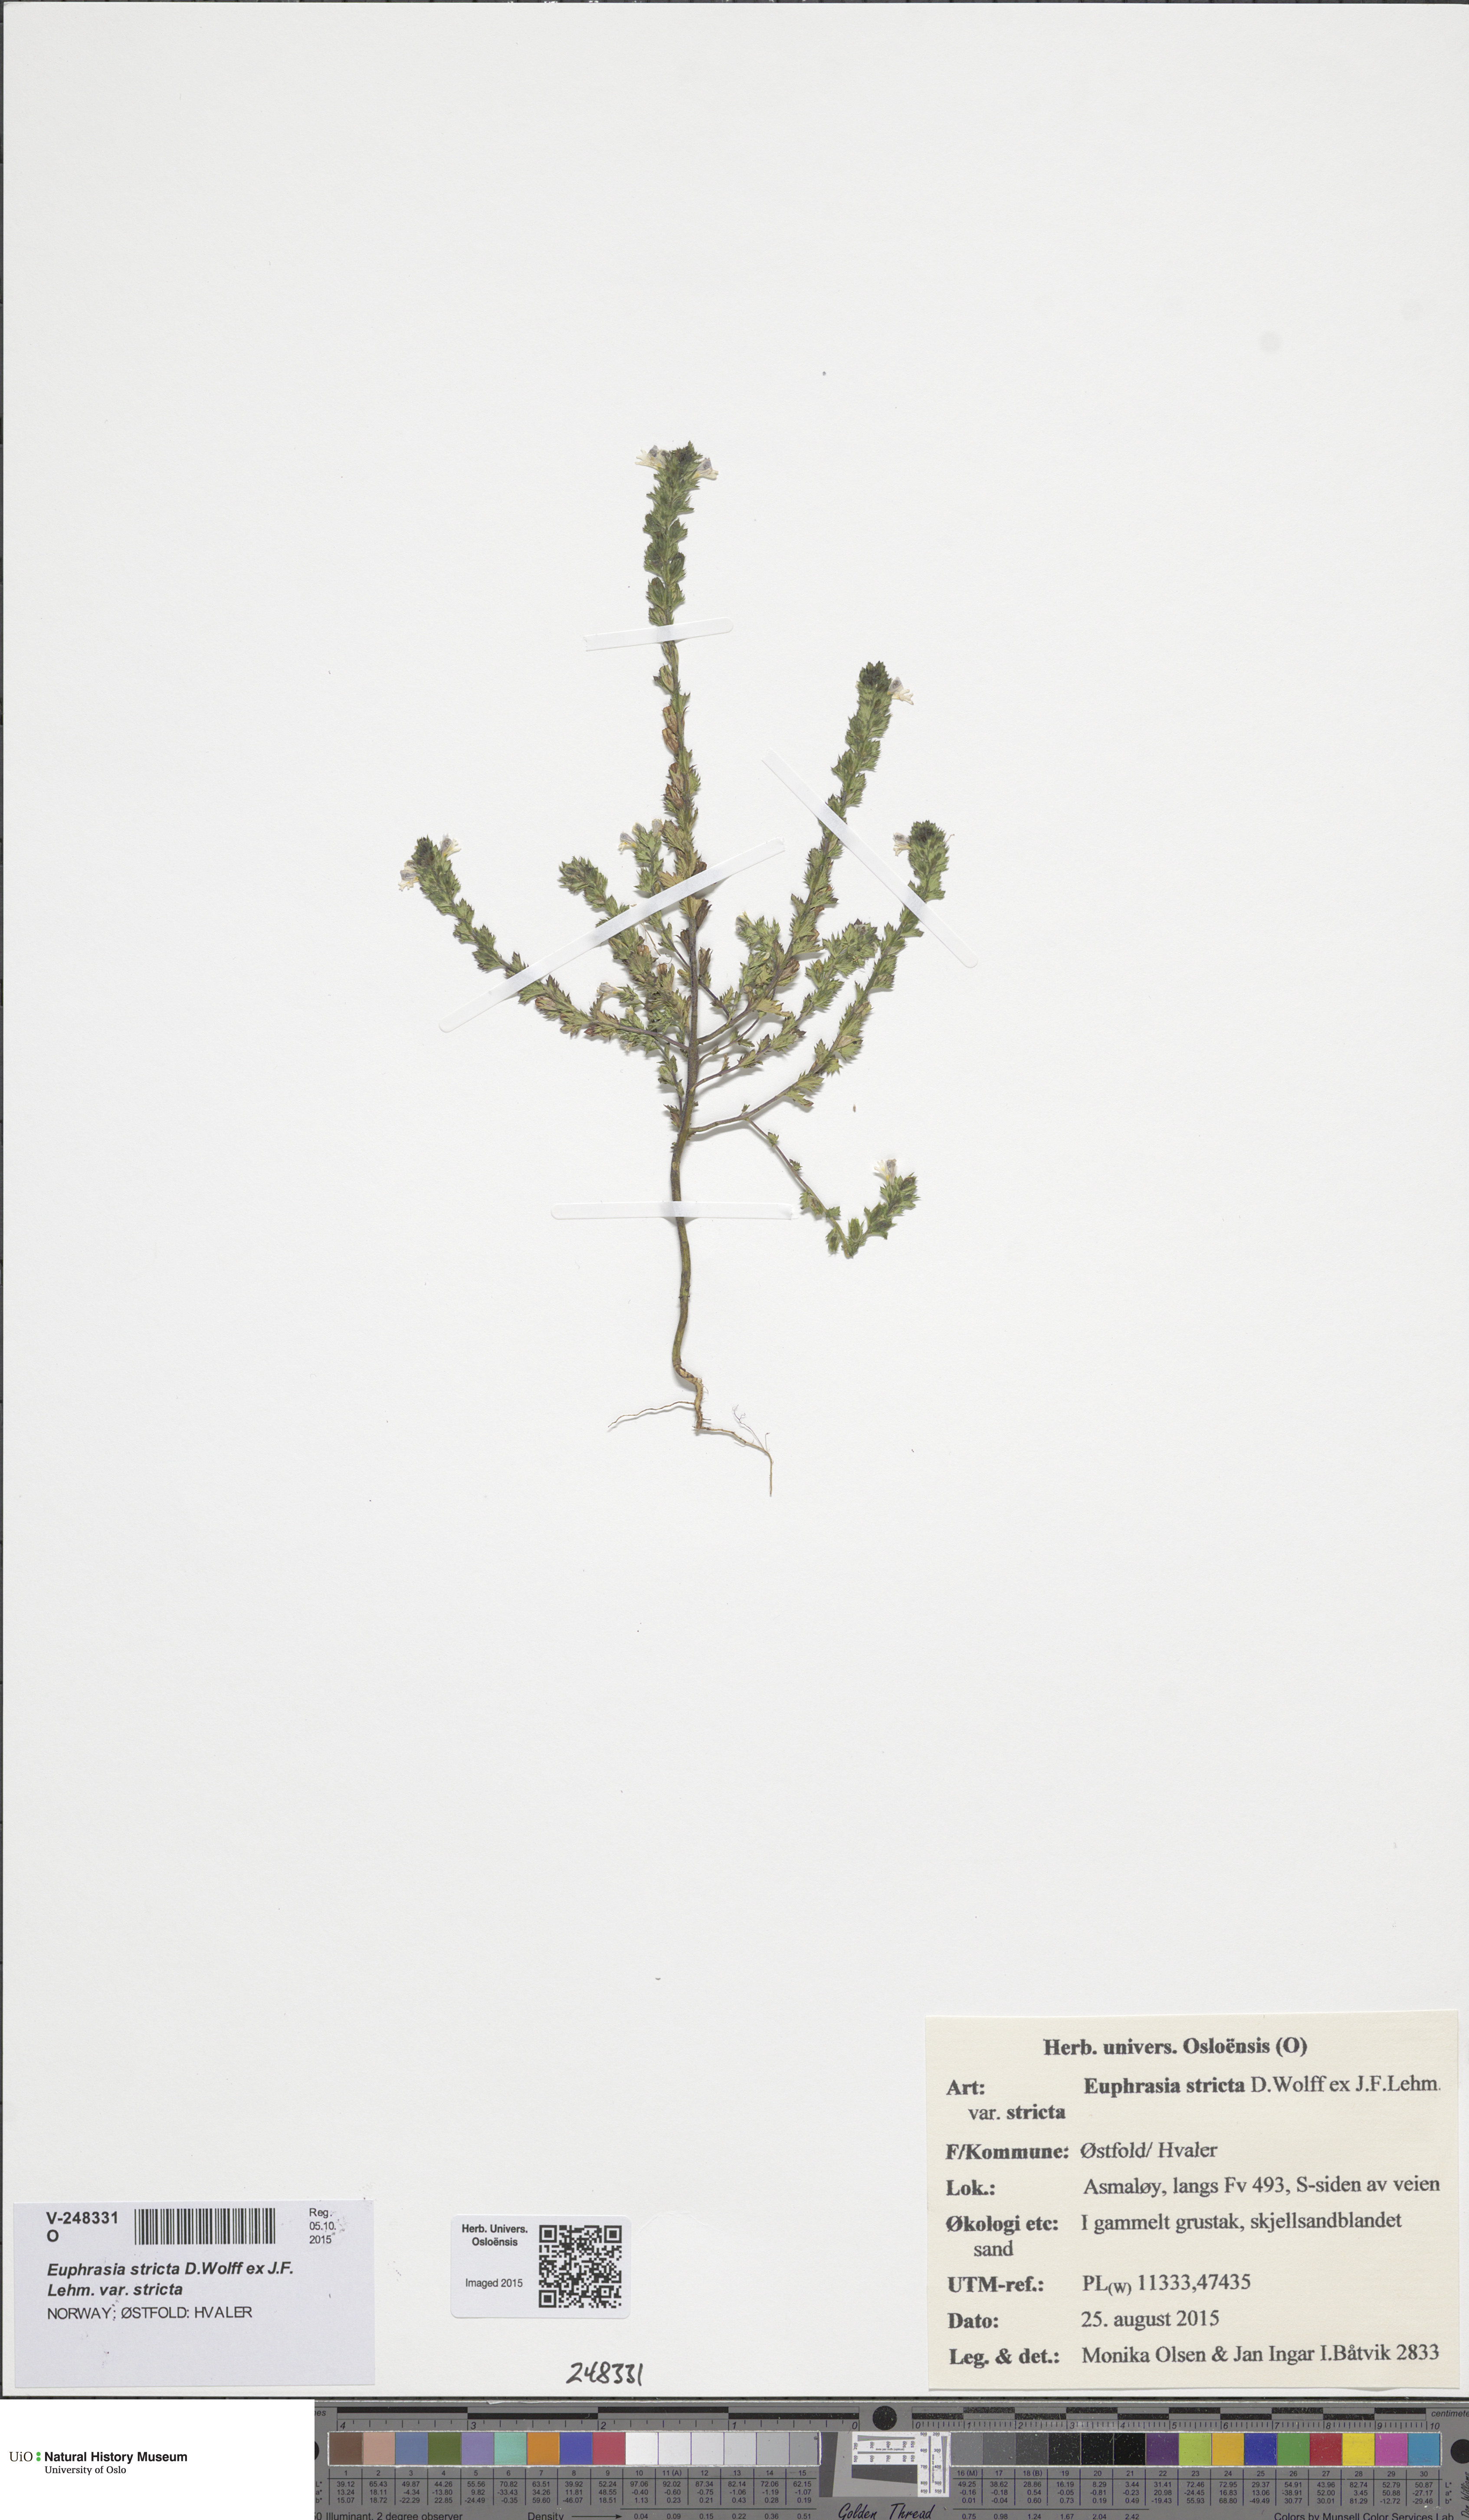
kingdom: Plantae
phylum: Tracheophyta
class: Magnoliopsida
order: Lamiales
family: Orobanchaceae
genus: Euphrasia
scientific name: Euphrasia stricta
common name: Drug eyebright
